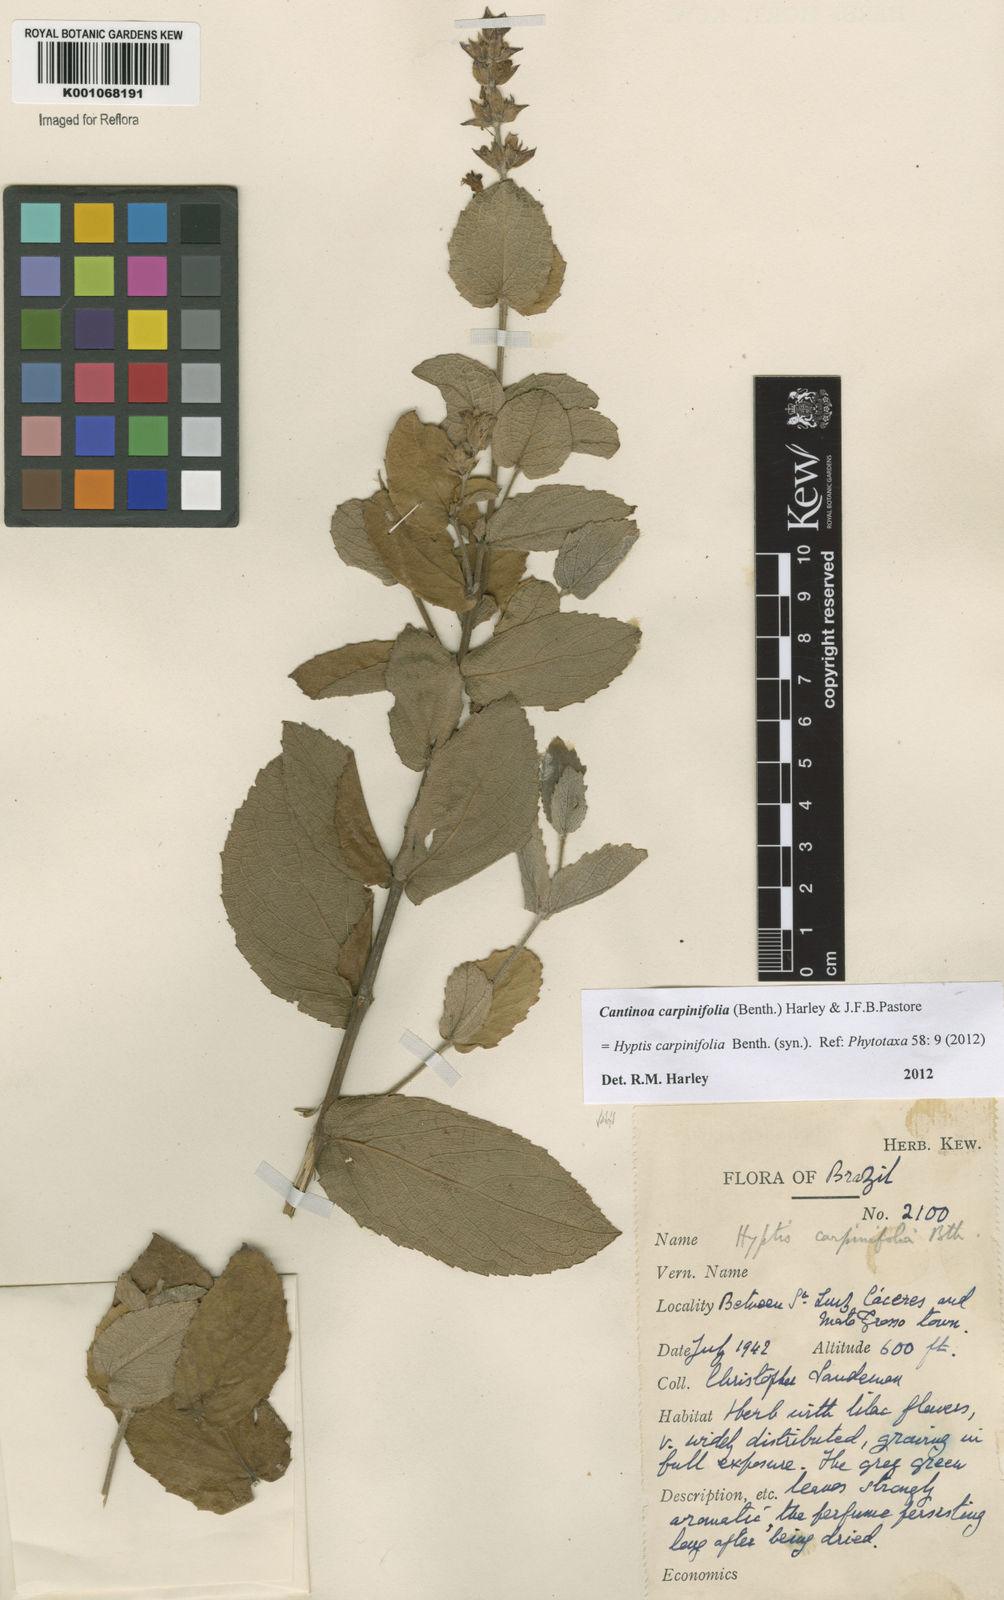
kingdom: Plantae
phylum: Tracheophyta
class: Magnoliopsida
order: Lamiales
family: Lamiaceae
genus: Cantinoa
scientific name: Cantinoa carpinifolia
